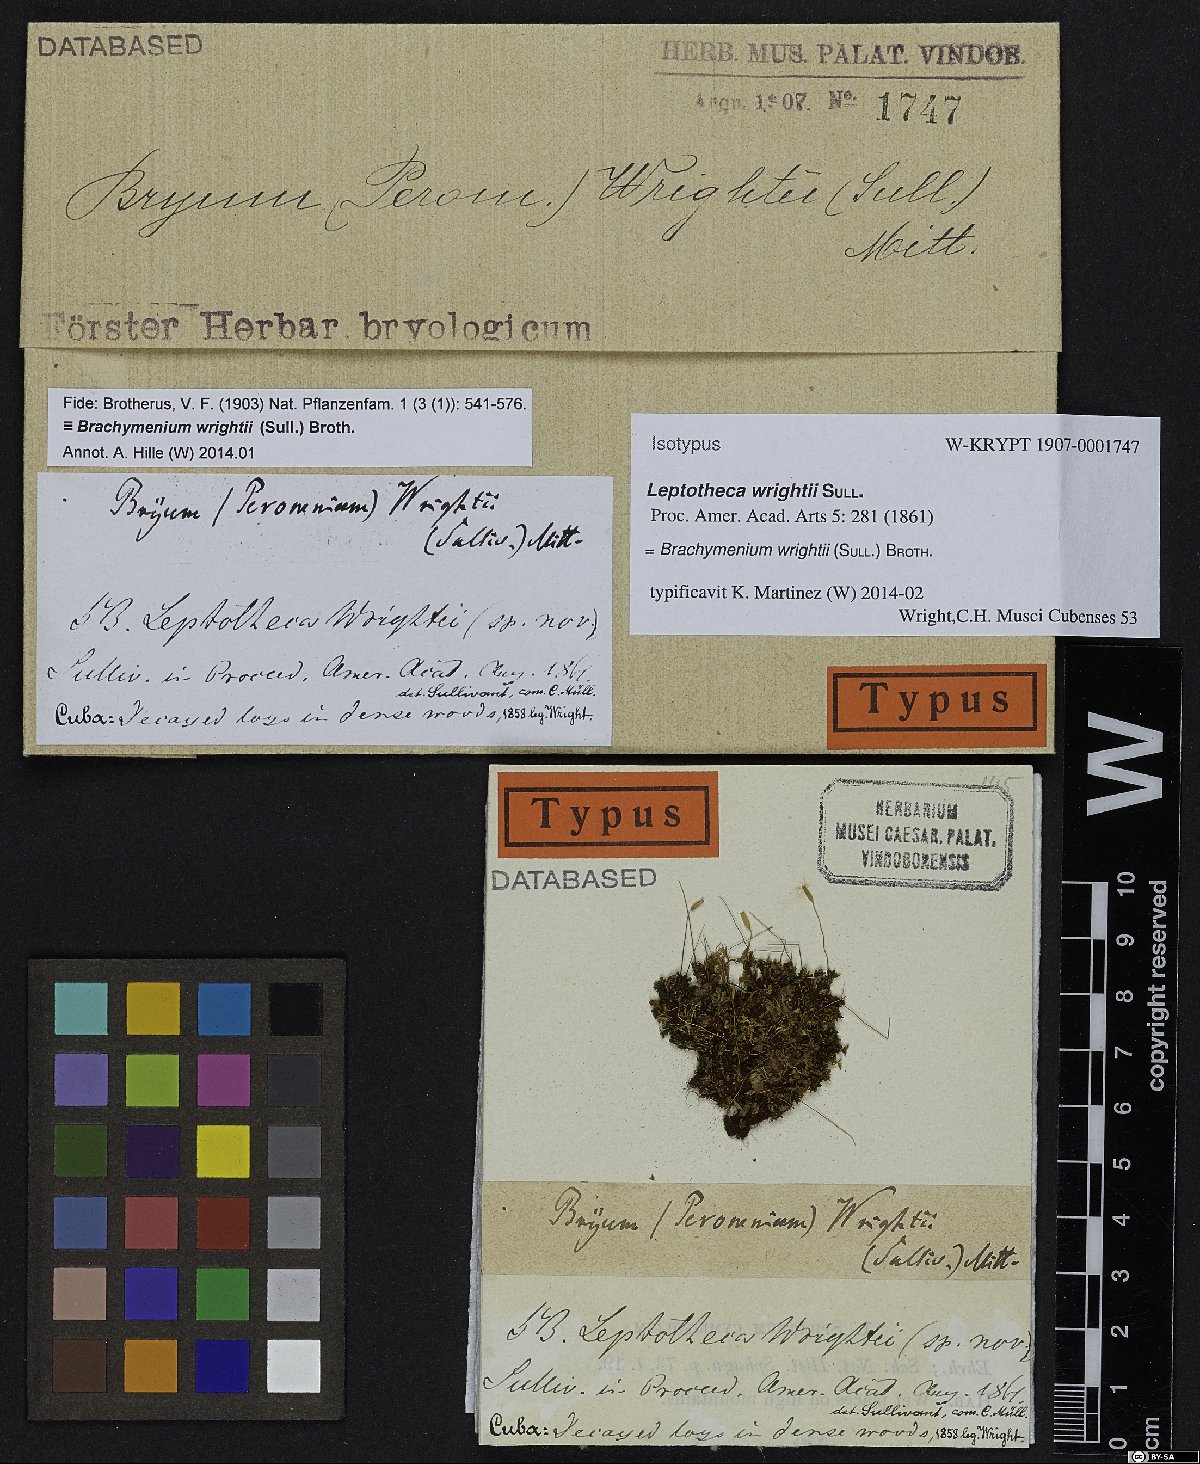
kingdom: Plantae
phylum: Bryophyta
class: Bryopsida
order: Bryales
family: Bryaceae
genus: Brachymenium
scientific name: Brachymenium wrightii
